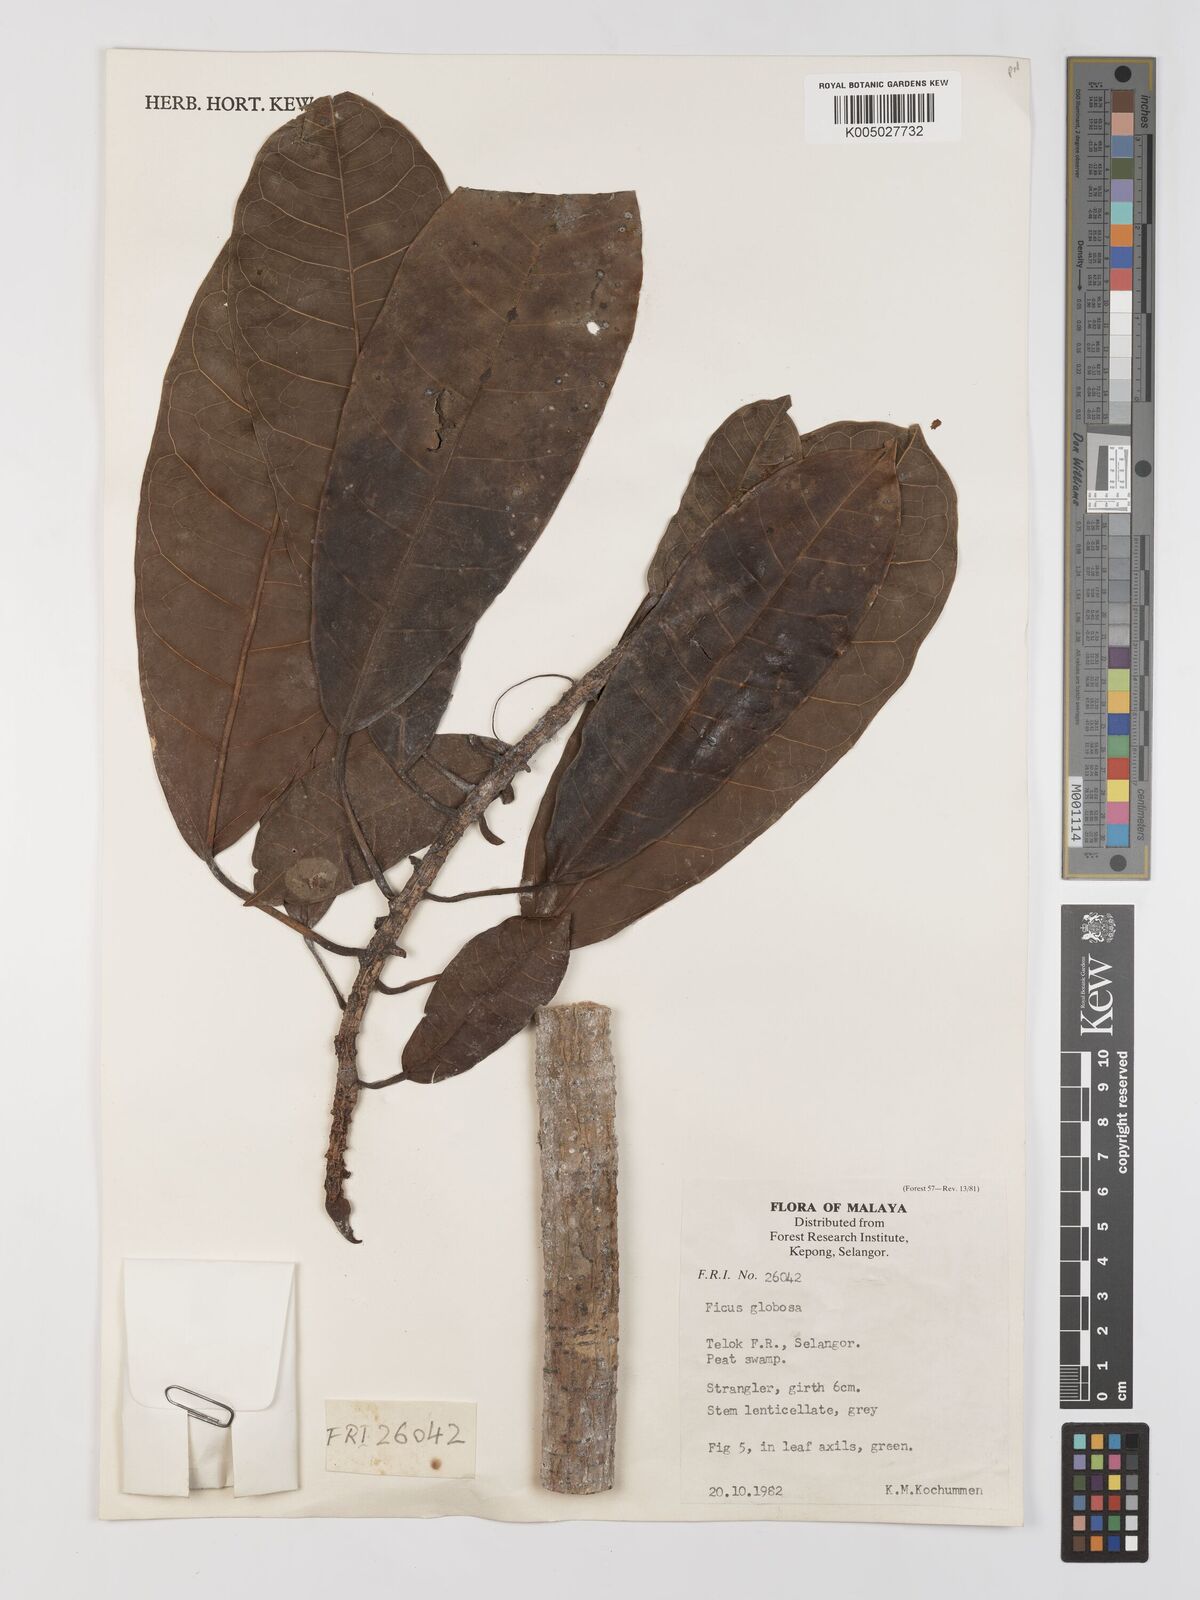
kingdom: Plantae
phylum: Tracheophyta
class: Magnoliopsida
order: Rosales
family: Moraceae
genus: Ficus
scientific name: Ficus
